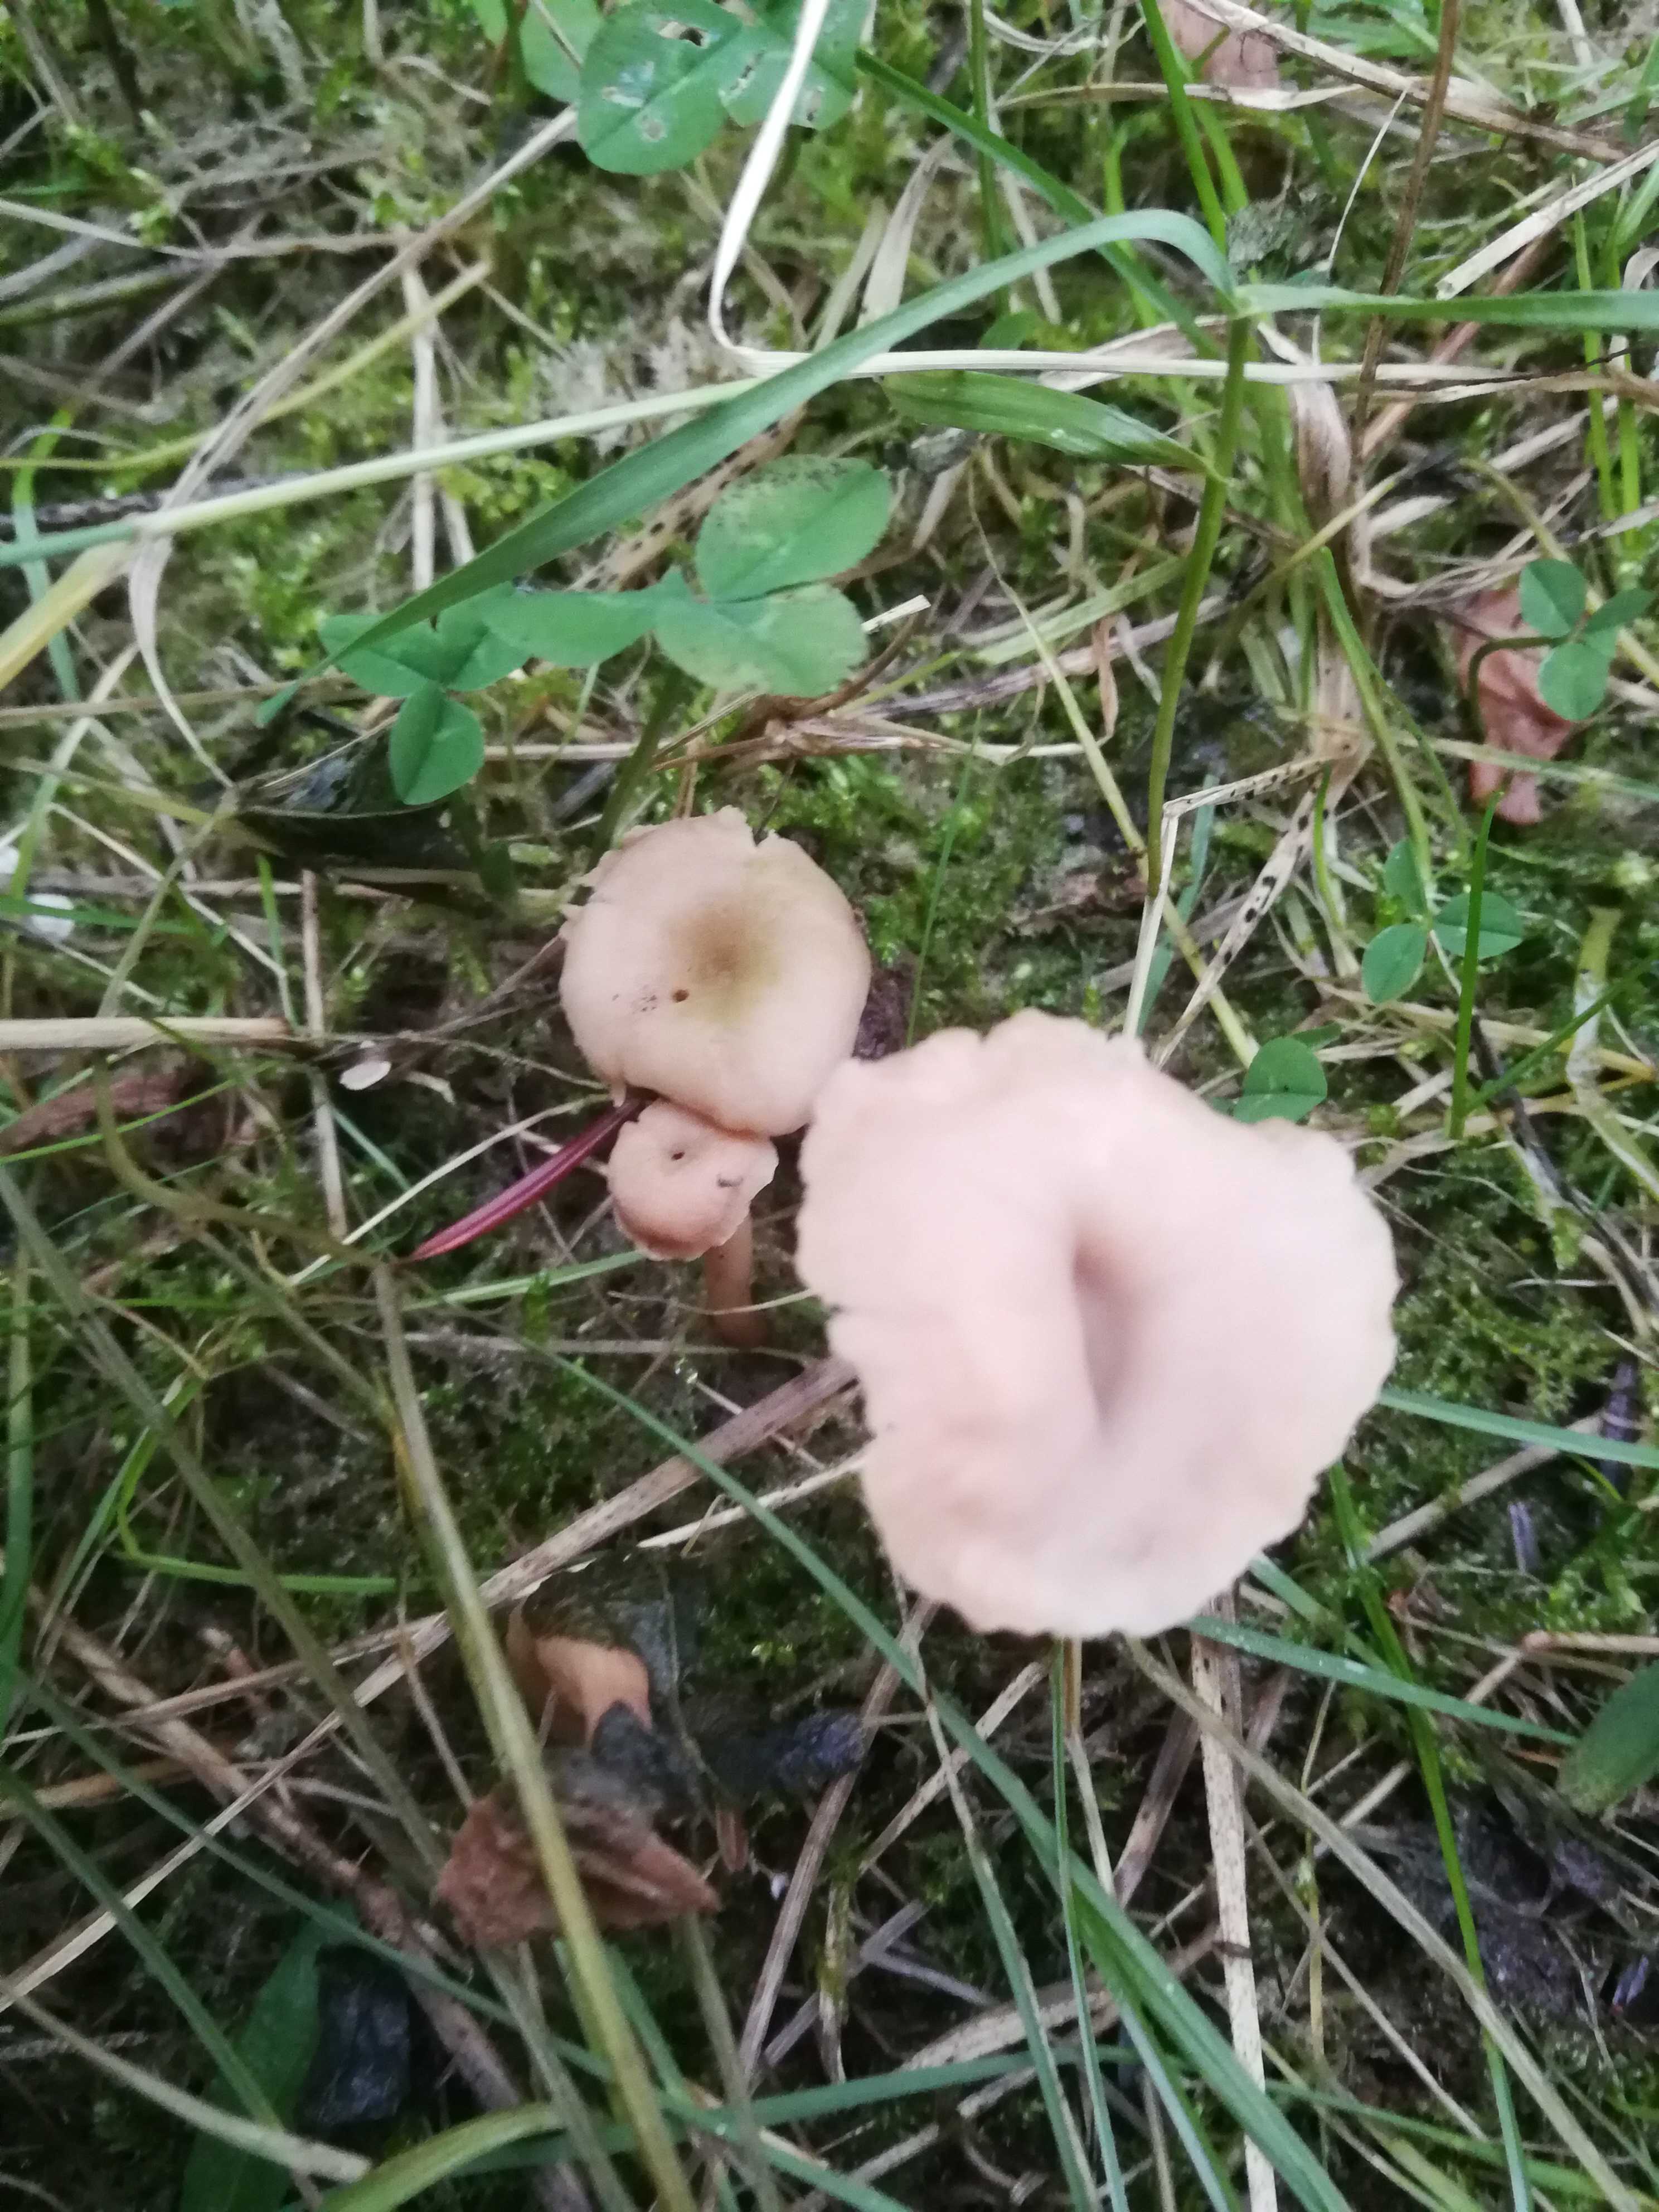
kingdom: Fungi
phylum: Basidiomycota
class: Agaricomycetes
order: Agaricales
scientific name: Agaricales
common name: champignonordenen
